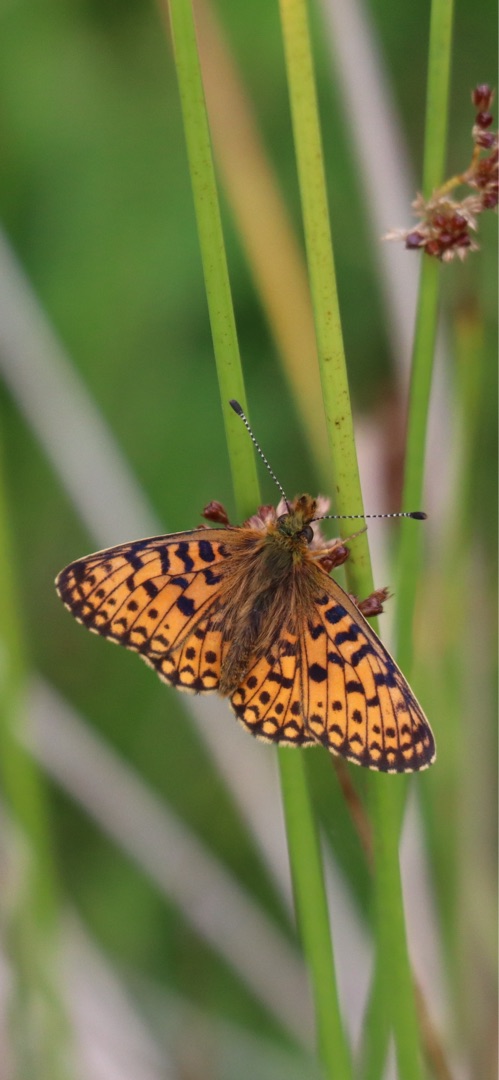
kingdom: Animalia
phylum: Arthropoda
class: Insecta
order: Lepidoptera
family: Nymphalidae
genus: Boloria
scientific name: Boloria selene
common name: Brunlig perlemorsommerfugl
